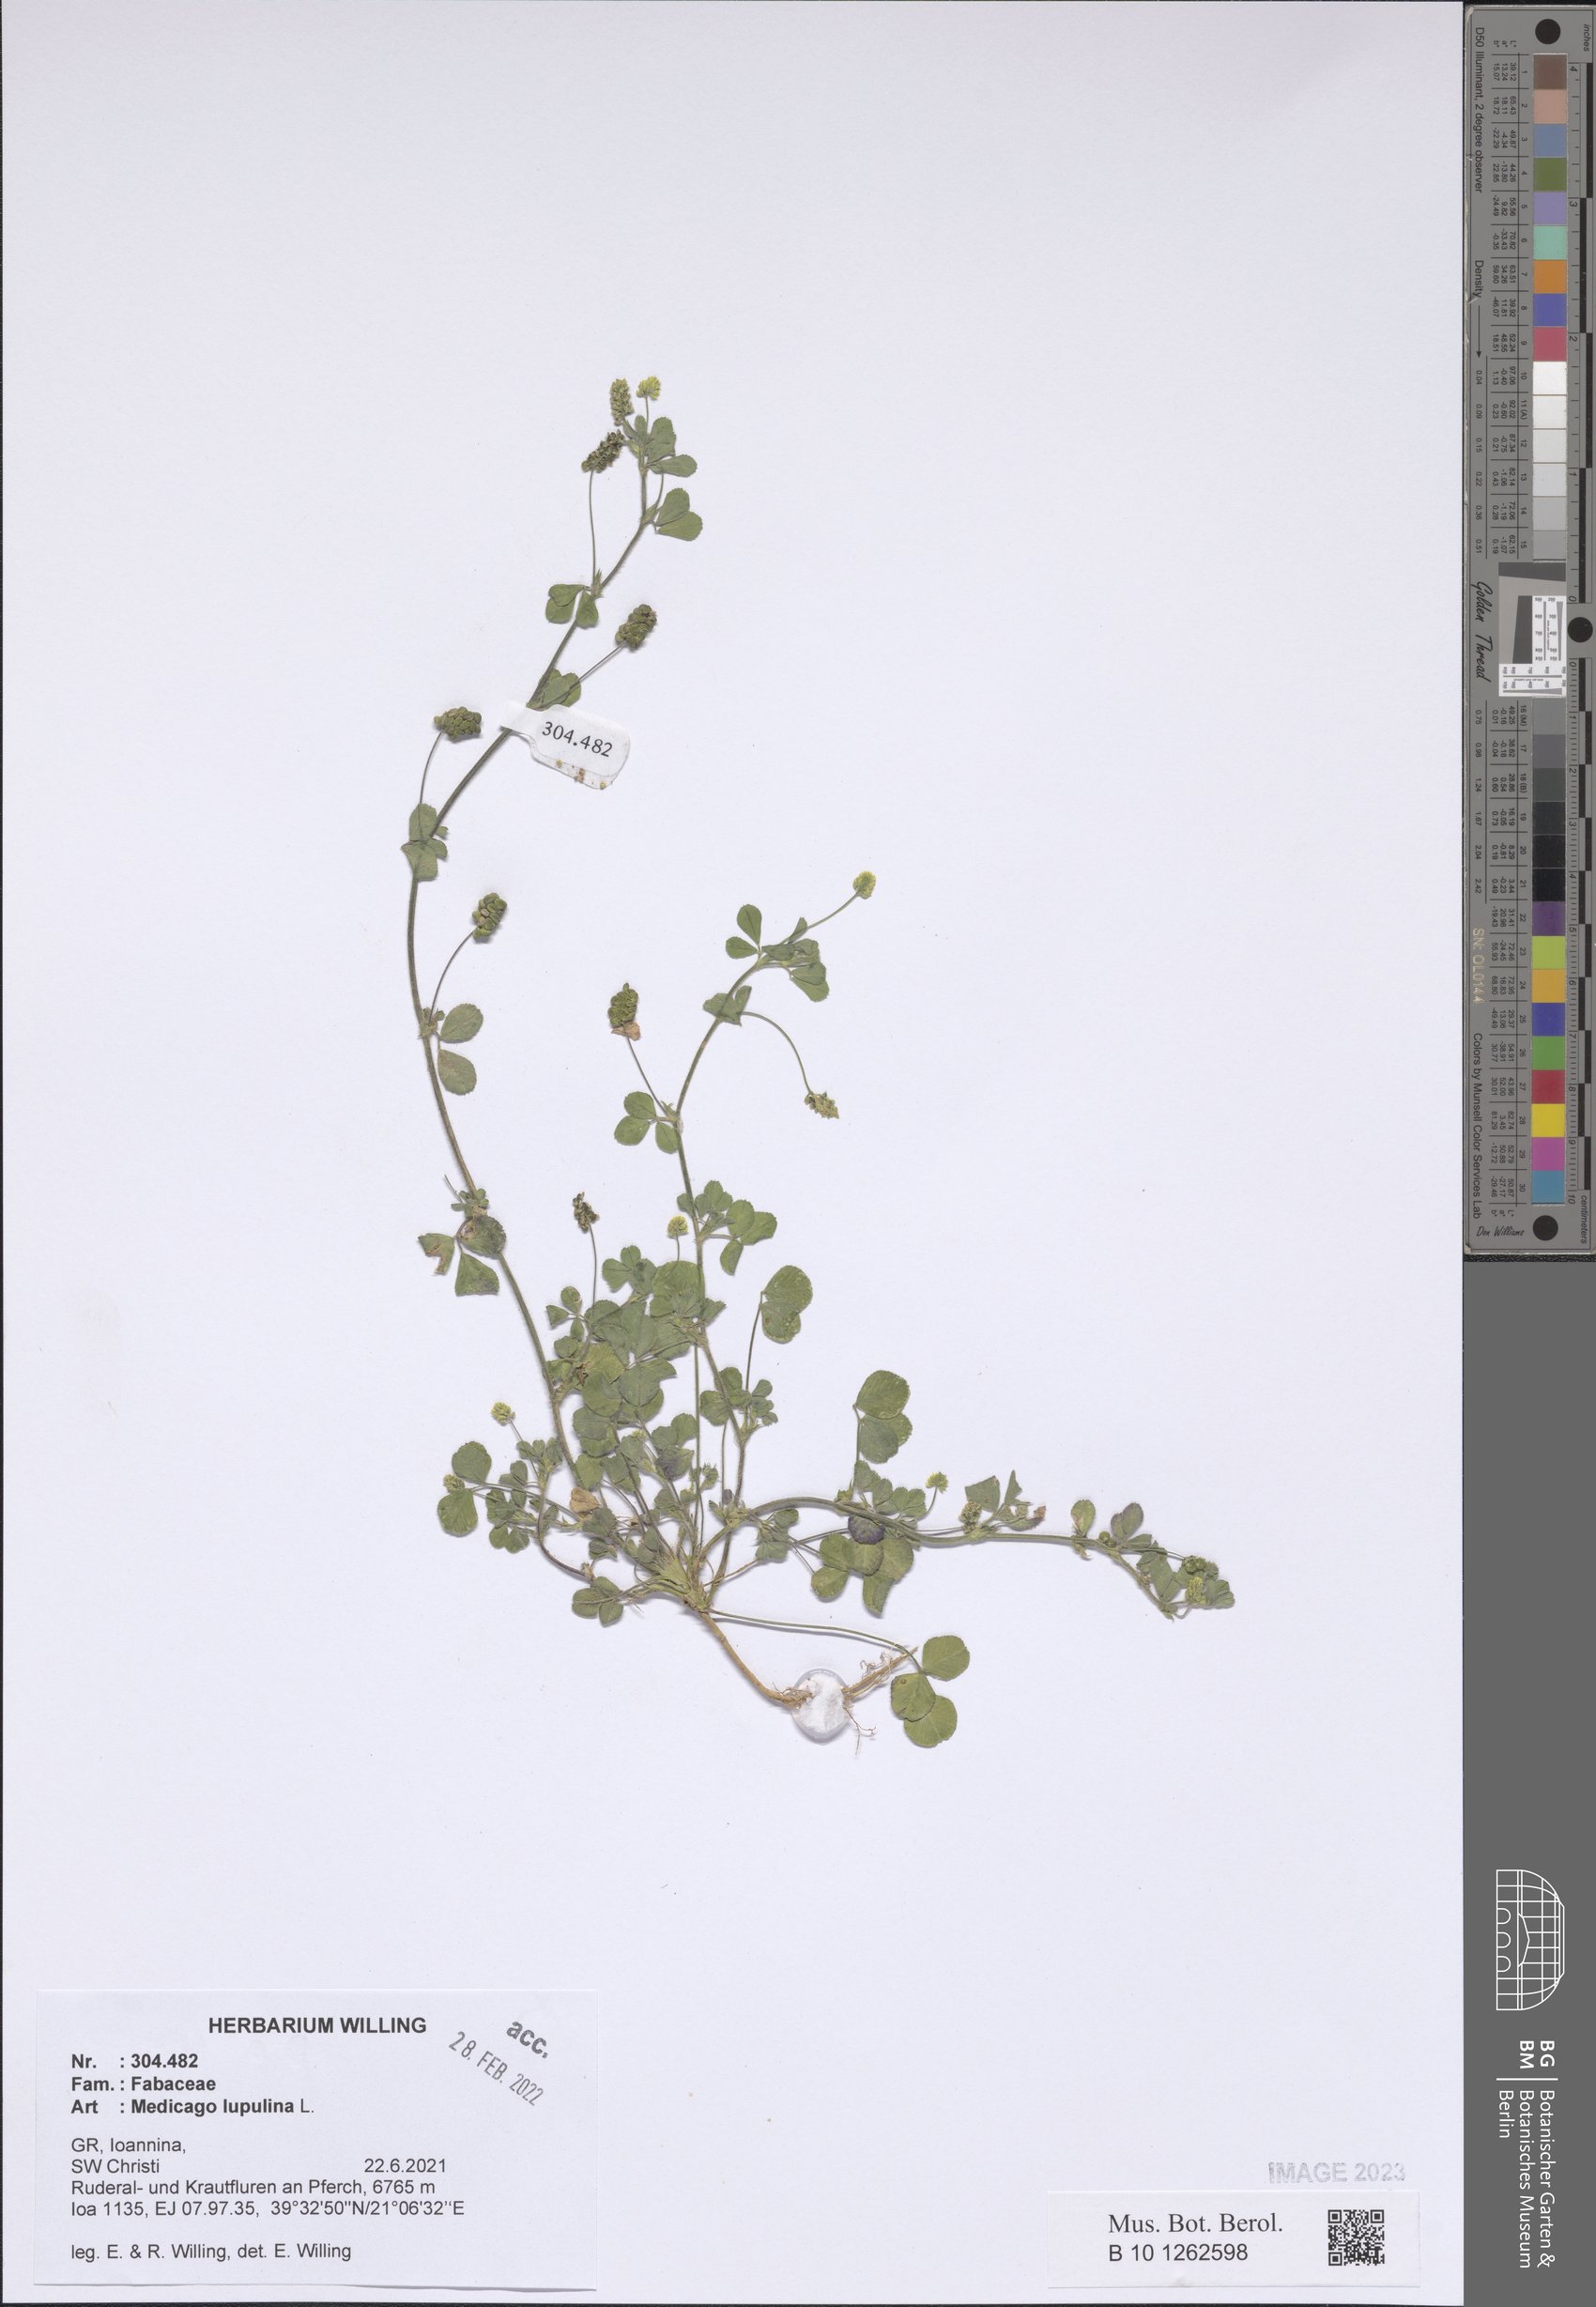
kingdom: Plantae
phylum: Tracheophyta
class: Magnoliopsida
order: Fabales
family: Fabaceae
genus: Medicago
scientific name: Medicago lupulina
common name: Black medick
